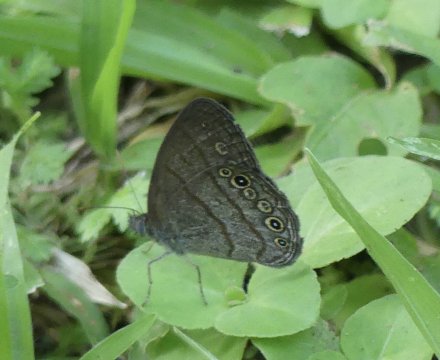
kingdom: Animalia
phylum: Arthropoda
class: Insecta
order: Lepidoptera
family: Nymphalidae
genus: Hermeuptychia
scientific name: Hermeuptychia hermes
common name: Hermes Satyr
